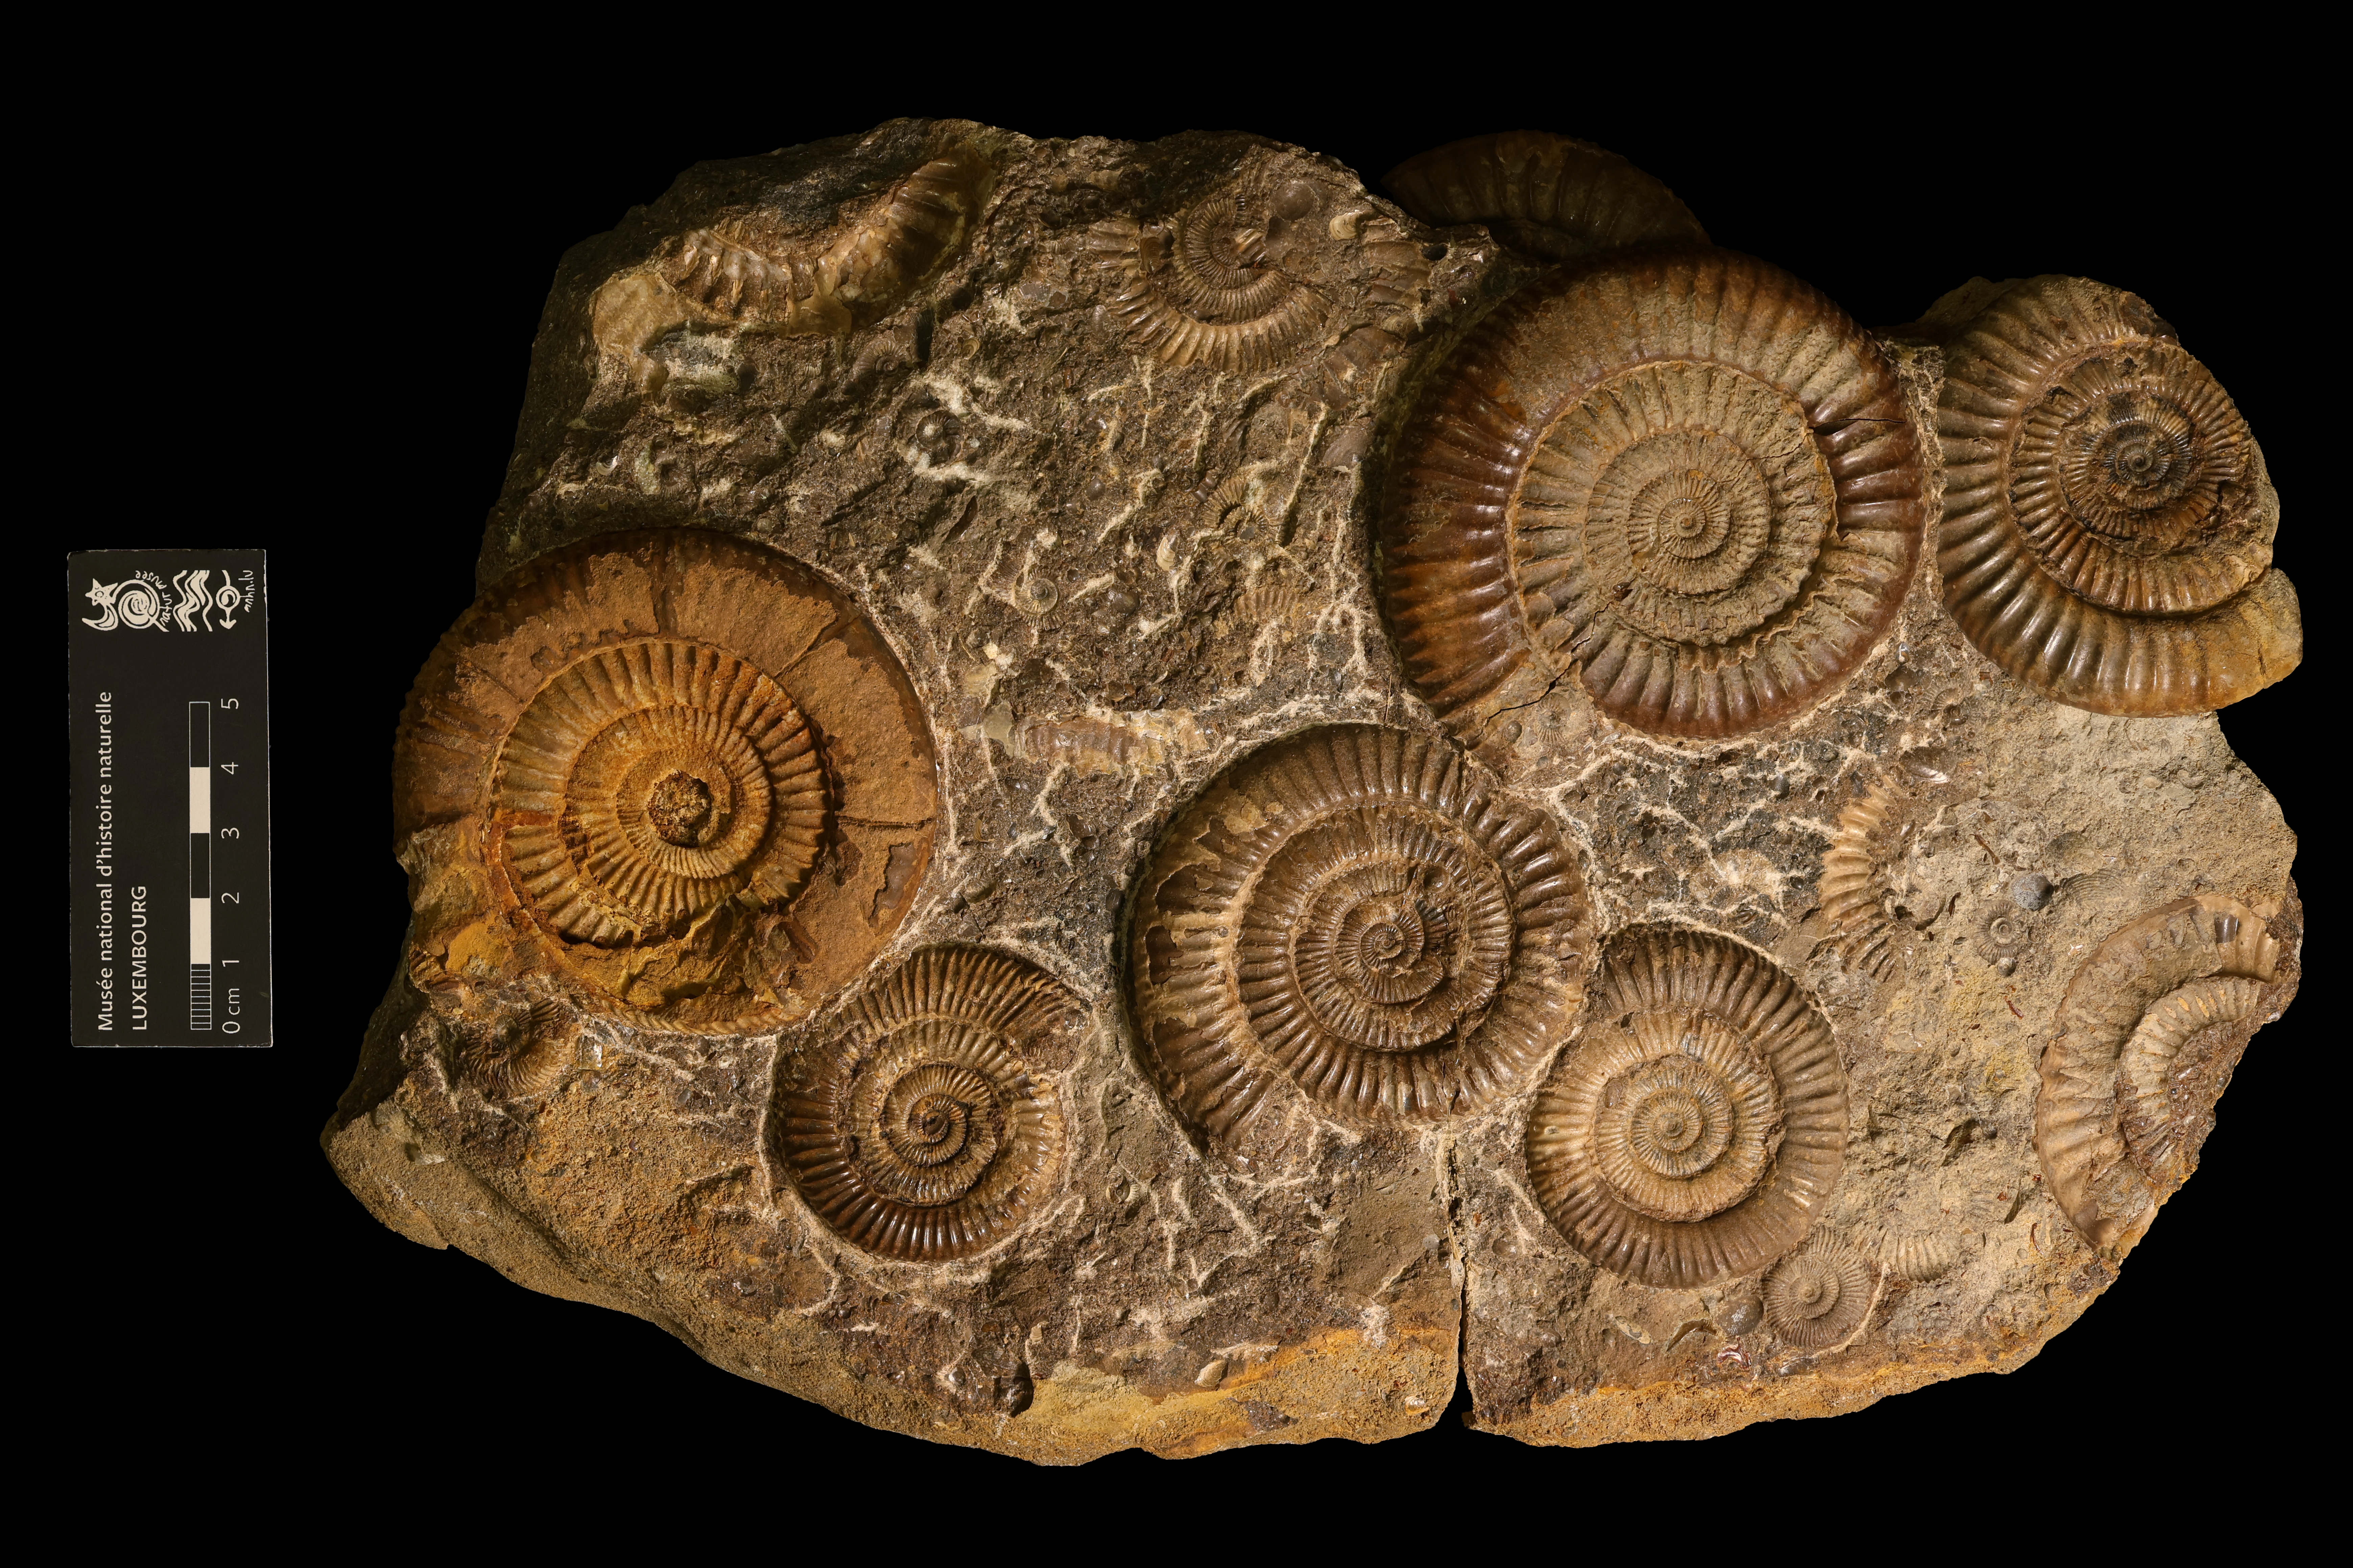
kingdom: Animalia
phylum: Mollusca
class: Cephalopoda
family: Dactylioceratidae
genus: Dactylioceras
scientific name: Dactylioceras athleticum
